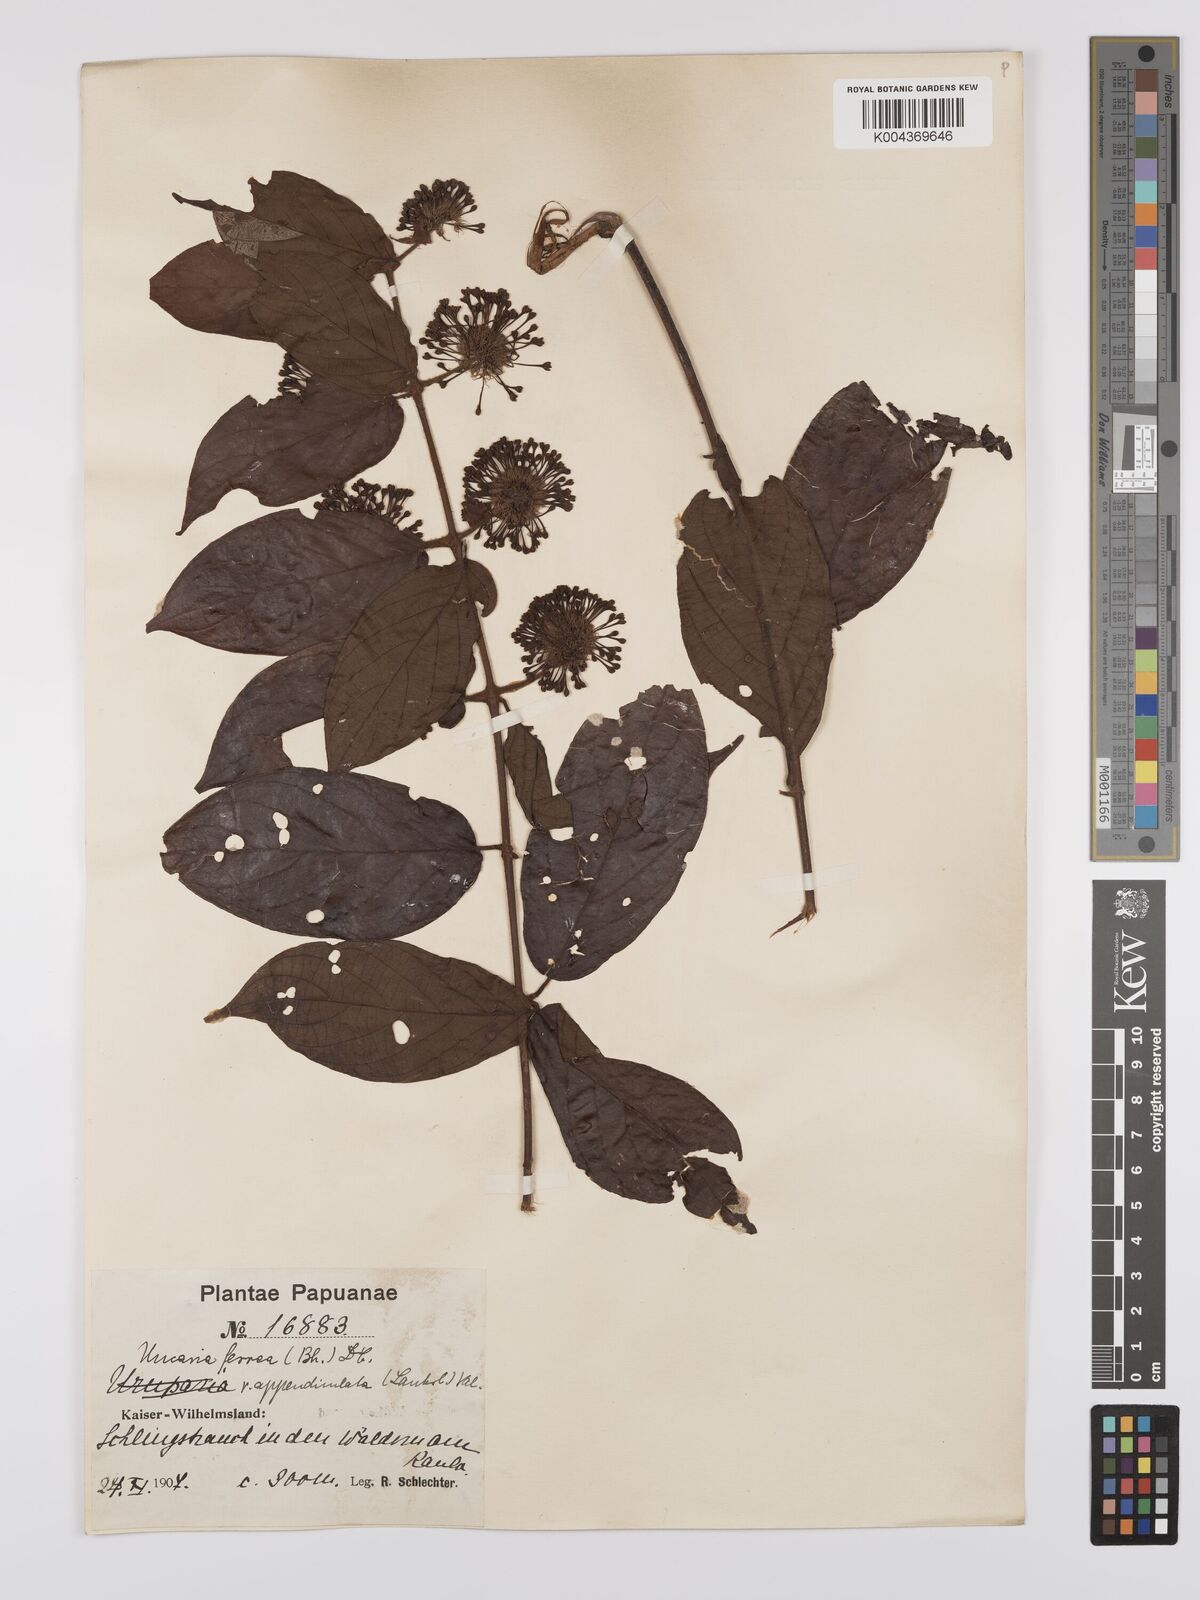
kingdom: Plantae
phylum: Tracheophyta
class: Magnoliopsida
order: Gentianales
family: Rubiaceae
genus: Uncaria
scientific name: Uncaria lanosa
